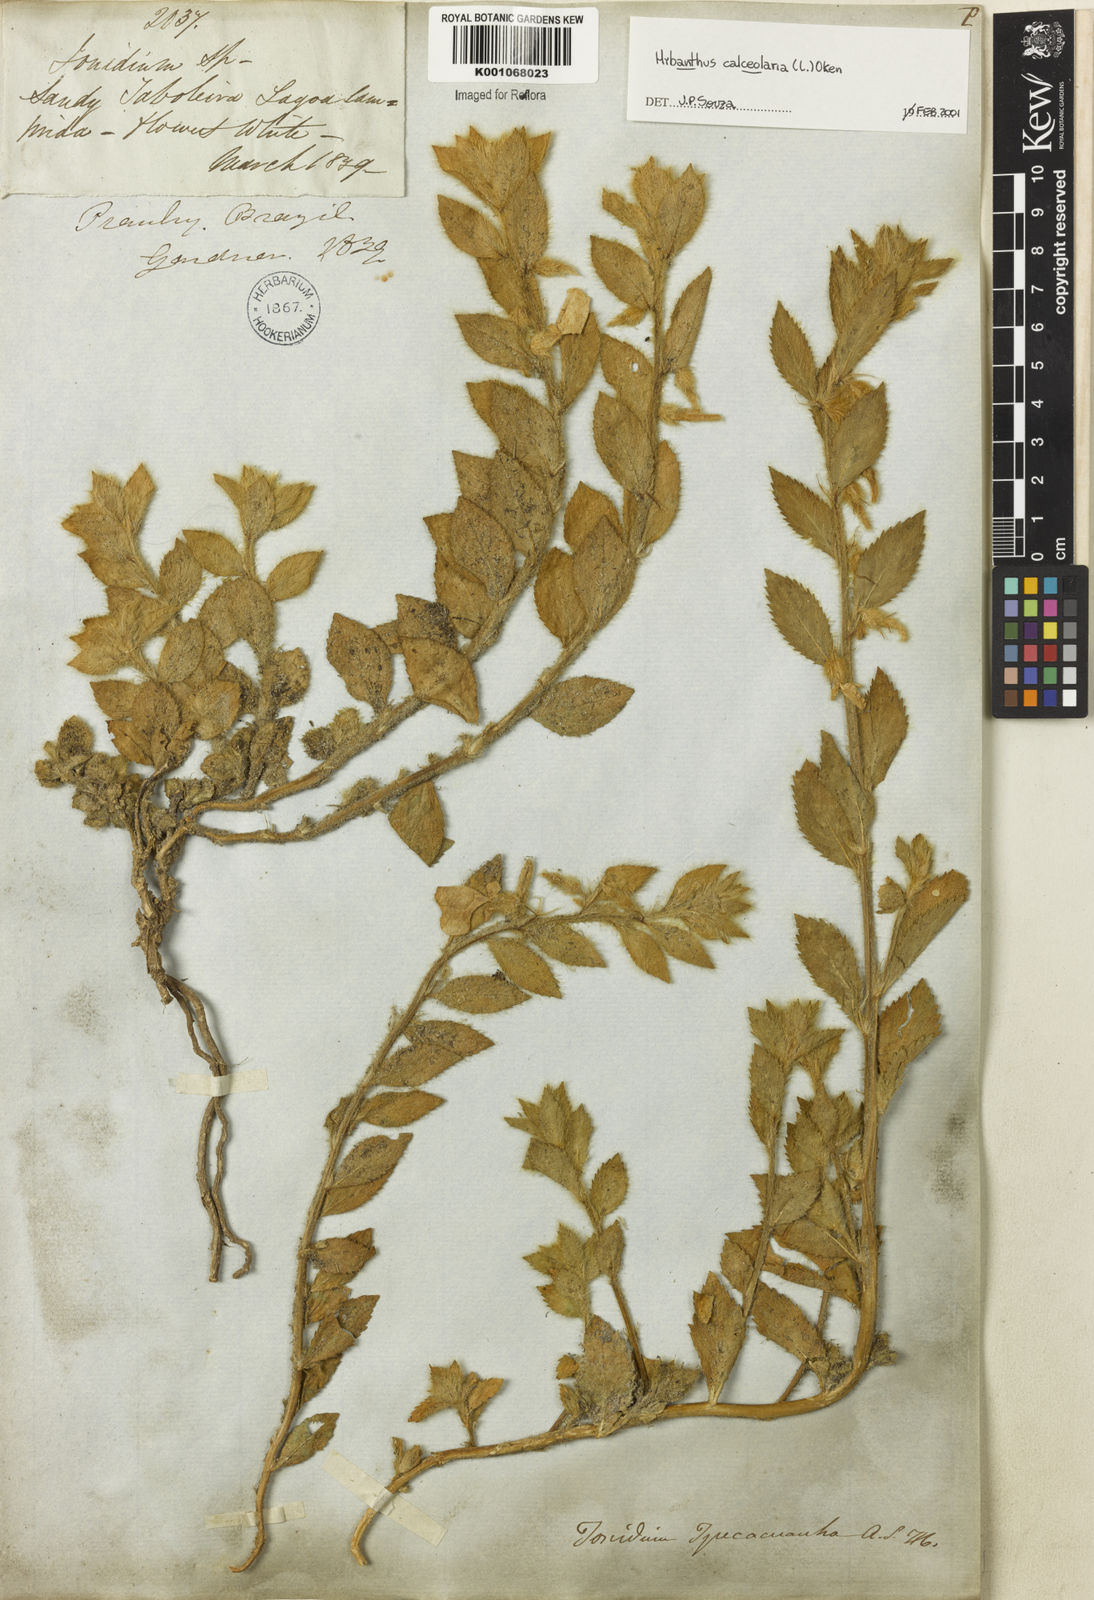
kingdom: Plantae
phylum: Tracheophyta
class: Magnoliopsida
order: Malpighiales
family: Violaceae
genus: Hybanthus
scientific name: Hybanthus
